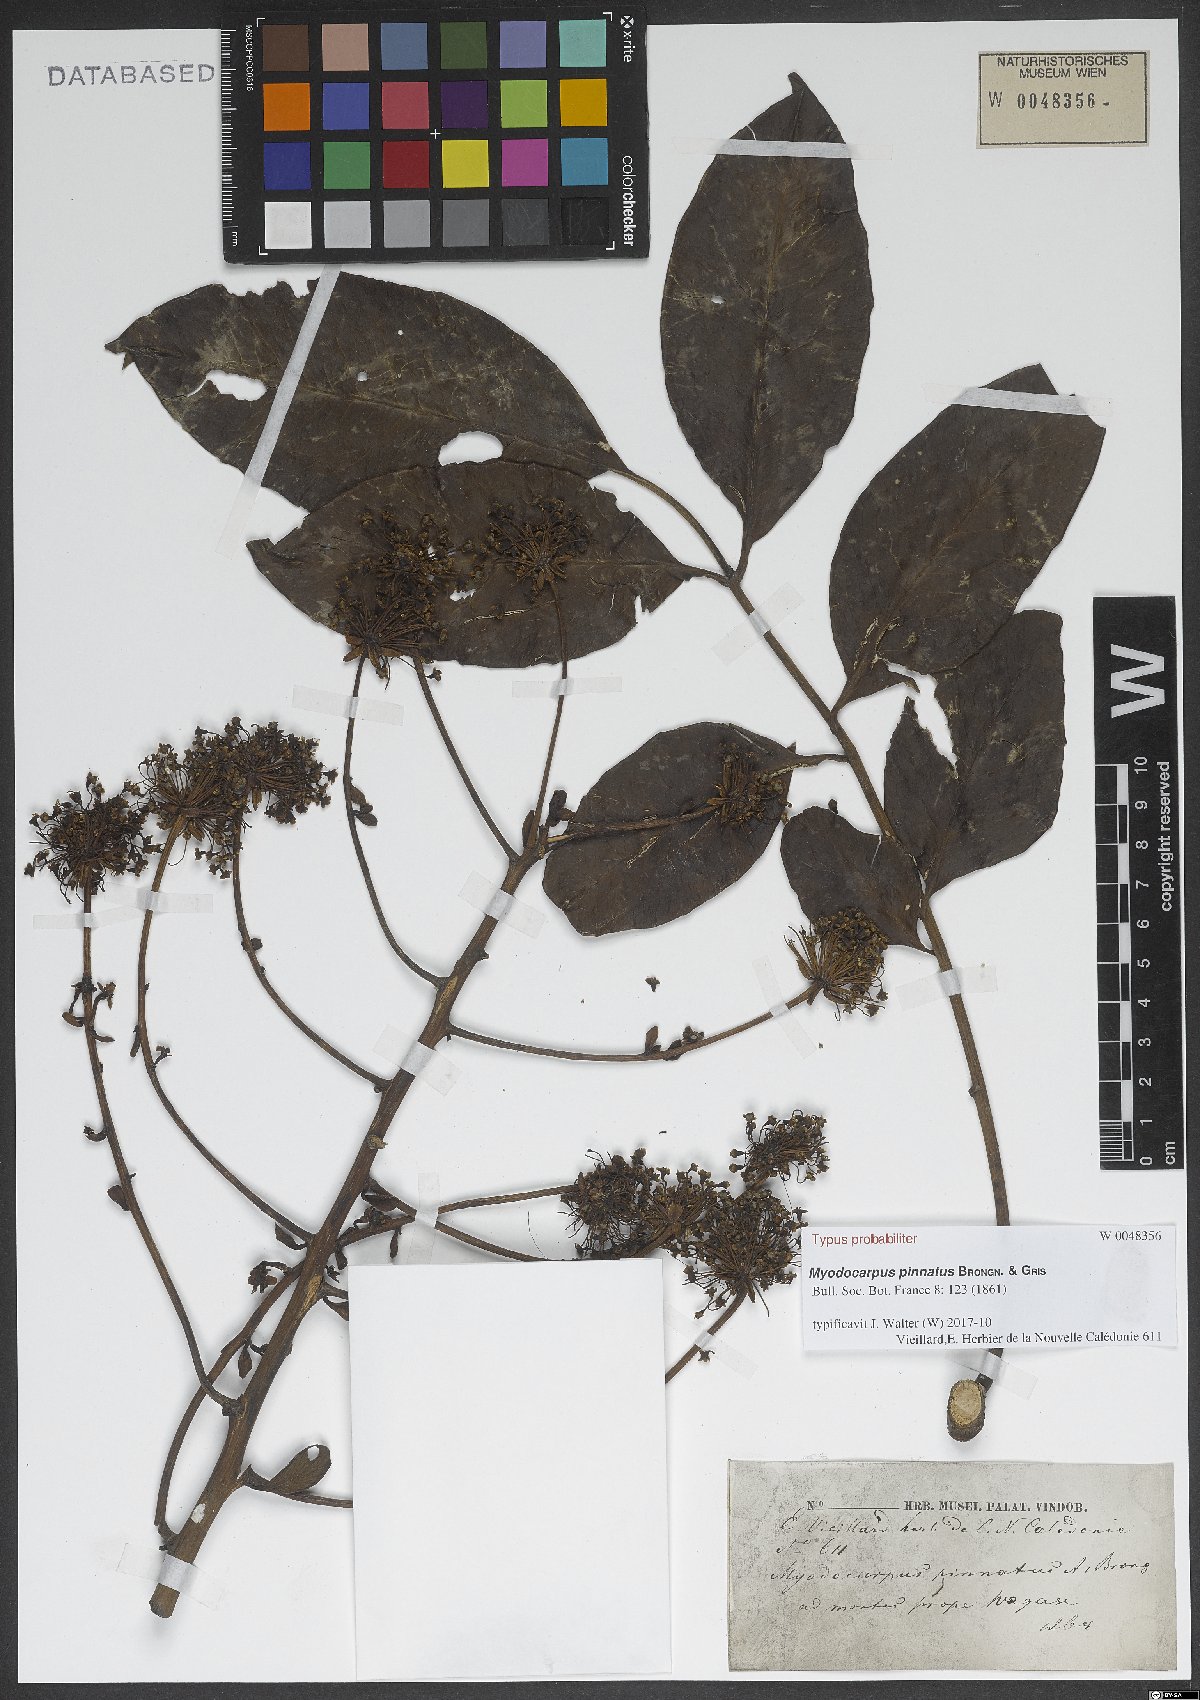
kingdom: Plantae
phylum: Tracheophyta
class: Magnoliopsida
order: Apiales
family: Myodocarpaceae
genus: Myodocarpus
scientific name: Myodocarpus pinnatus
